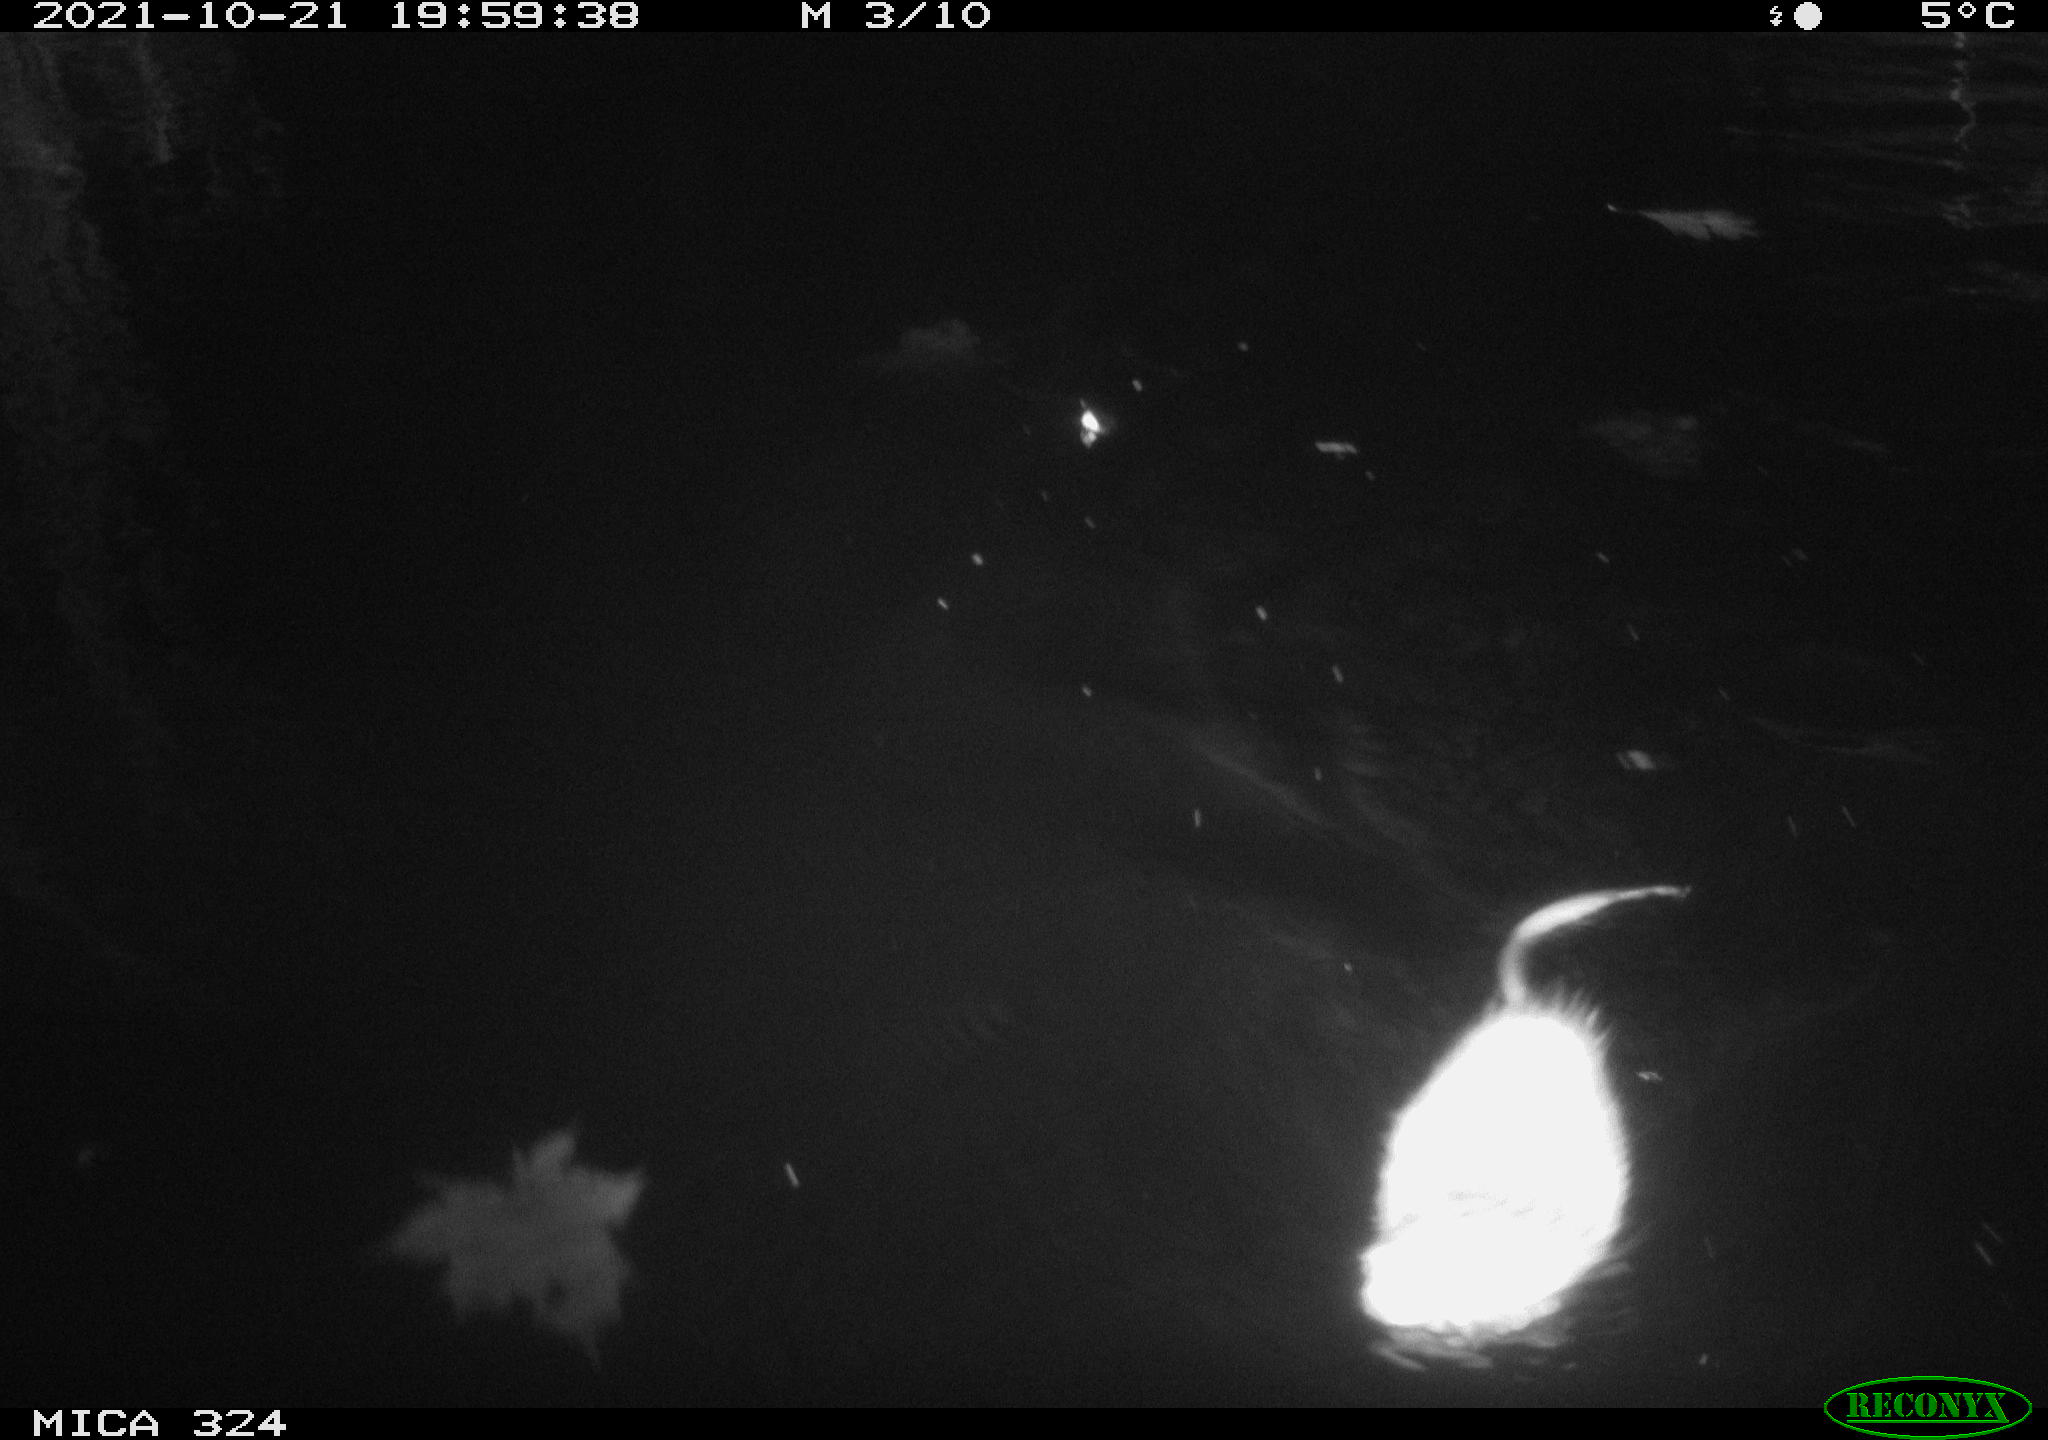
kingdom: Animalia
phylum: Chordata
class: Mammalia
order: Rodentia
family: Cricetidae
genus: Ondatra
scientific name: Ondatra zibethicus
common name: Muskrat
